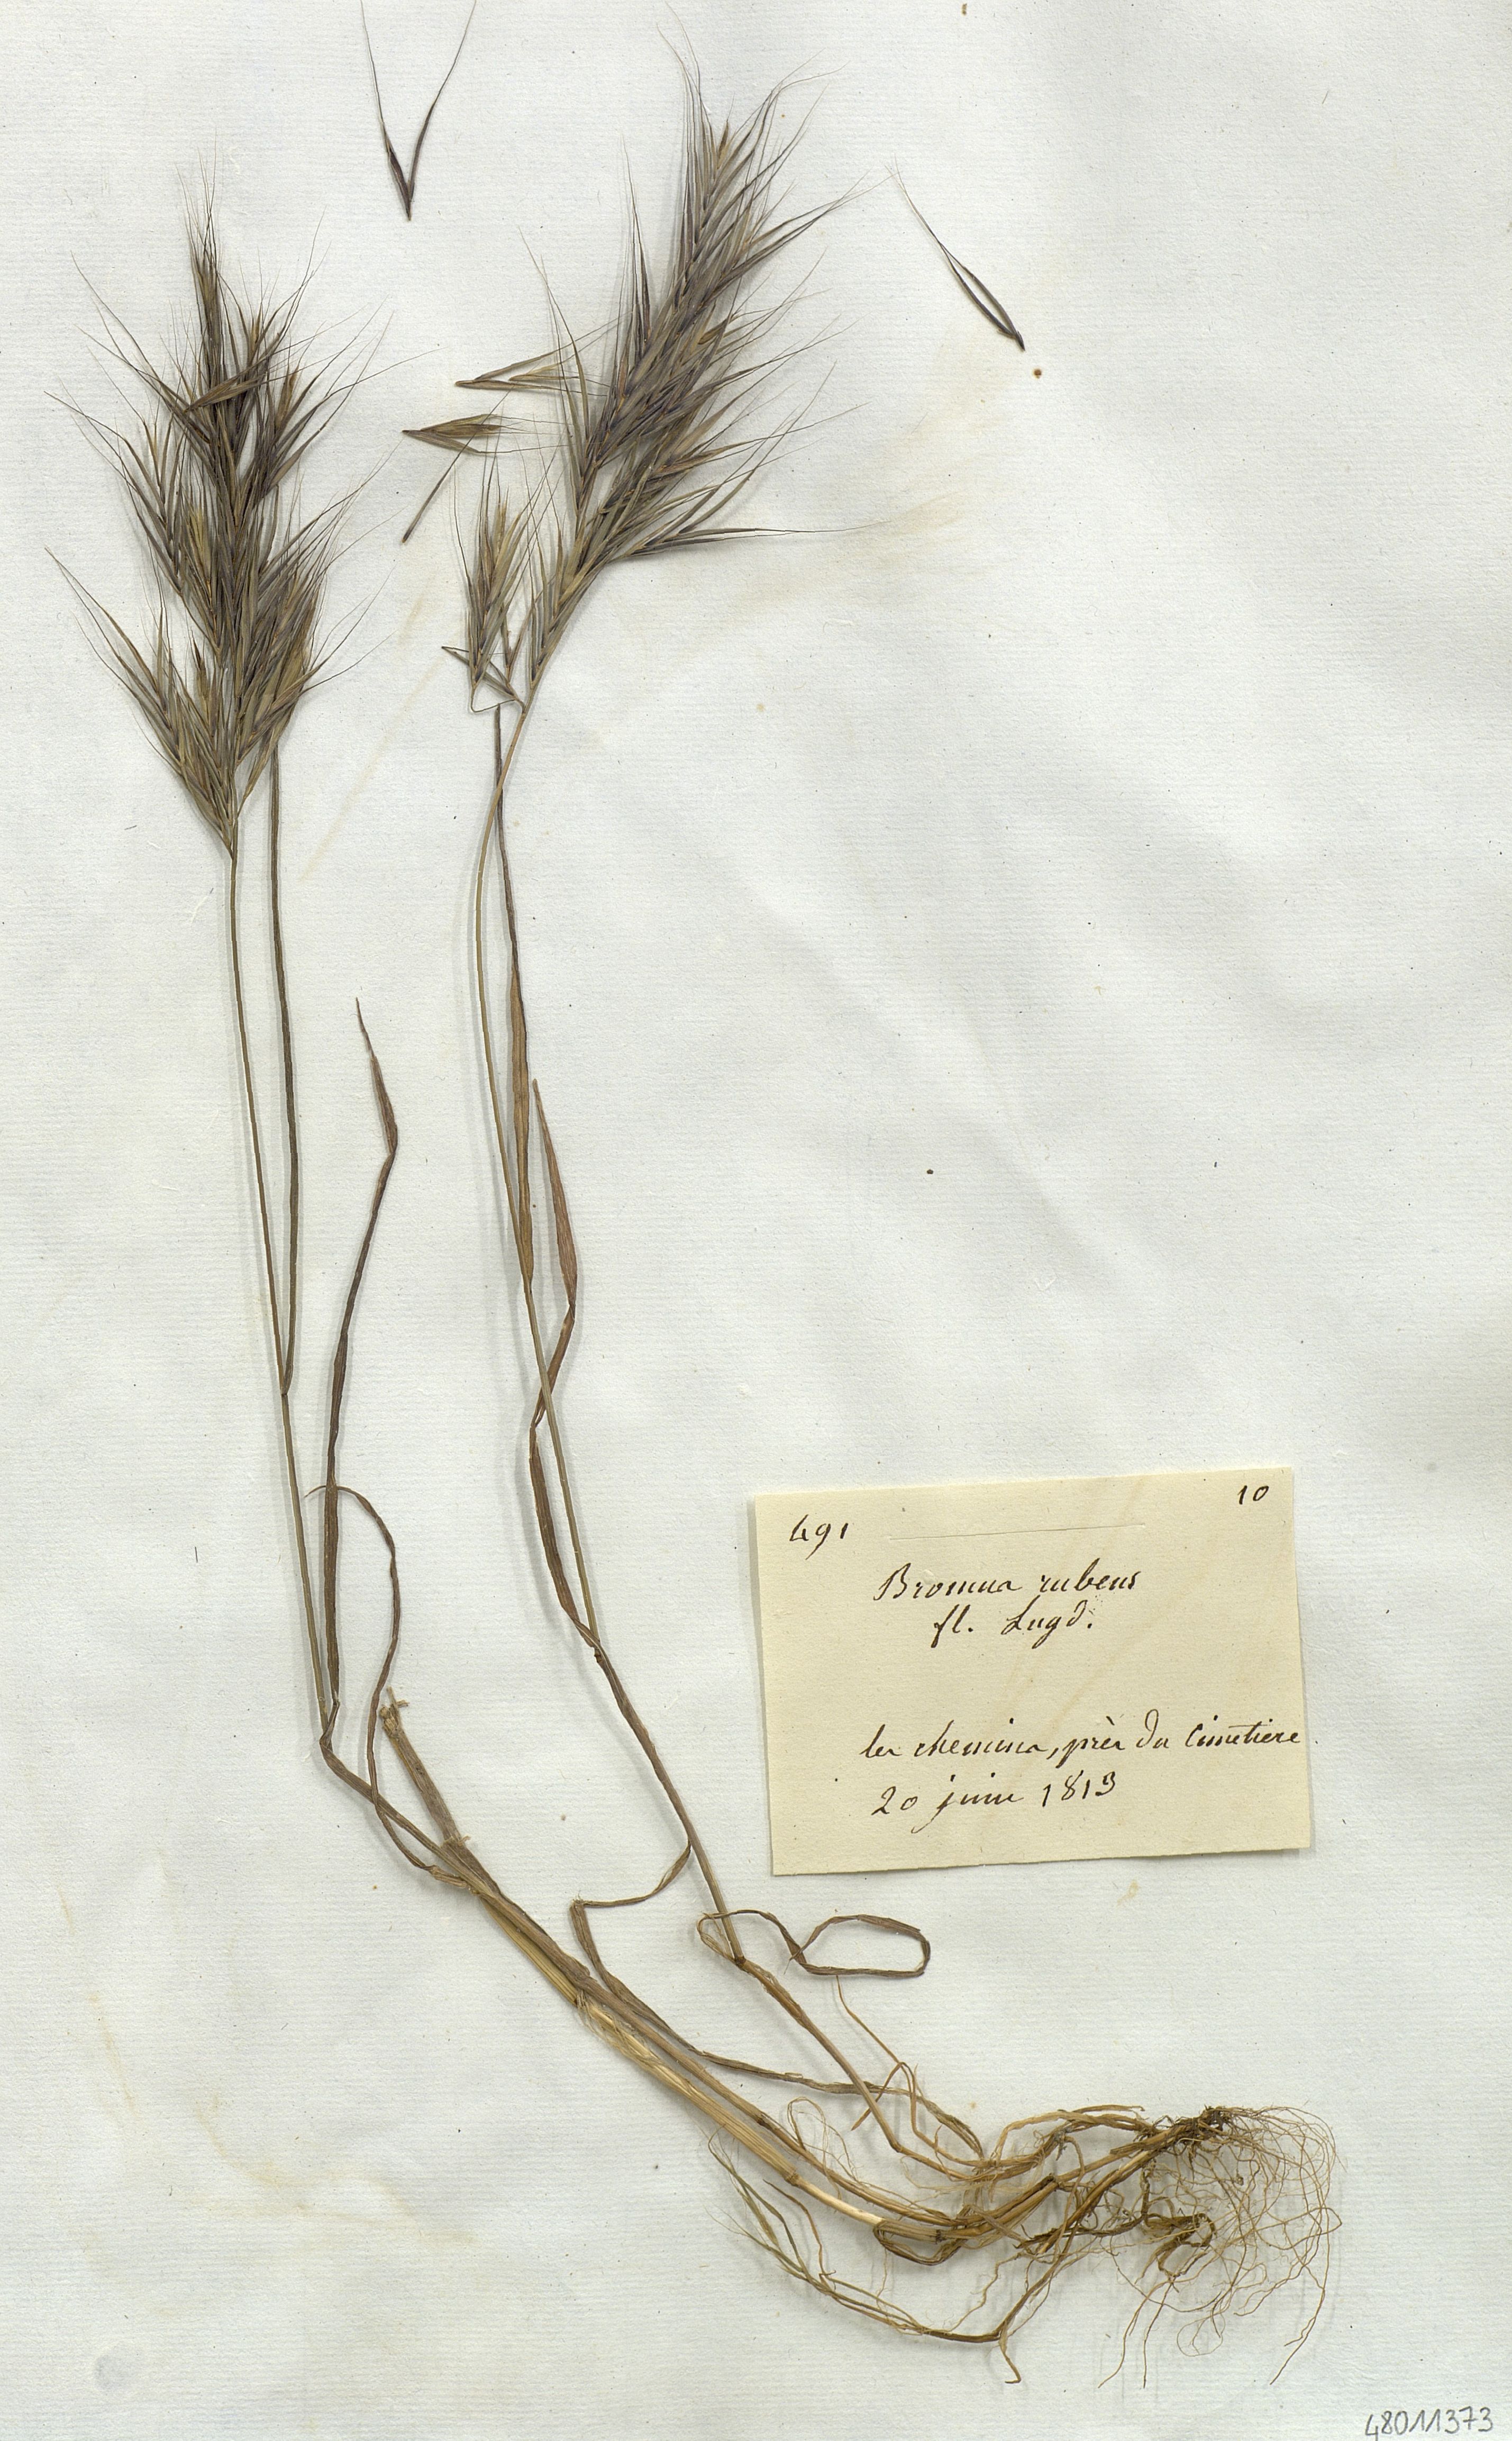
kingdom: Plantae
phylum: Tracheophyta
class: Liliopsida
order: Poales
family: Poaceae
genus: Bromus
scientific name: Bromus rubens
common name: Red brome
